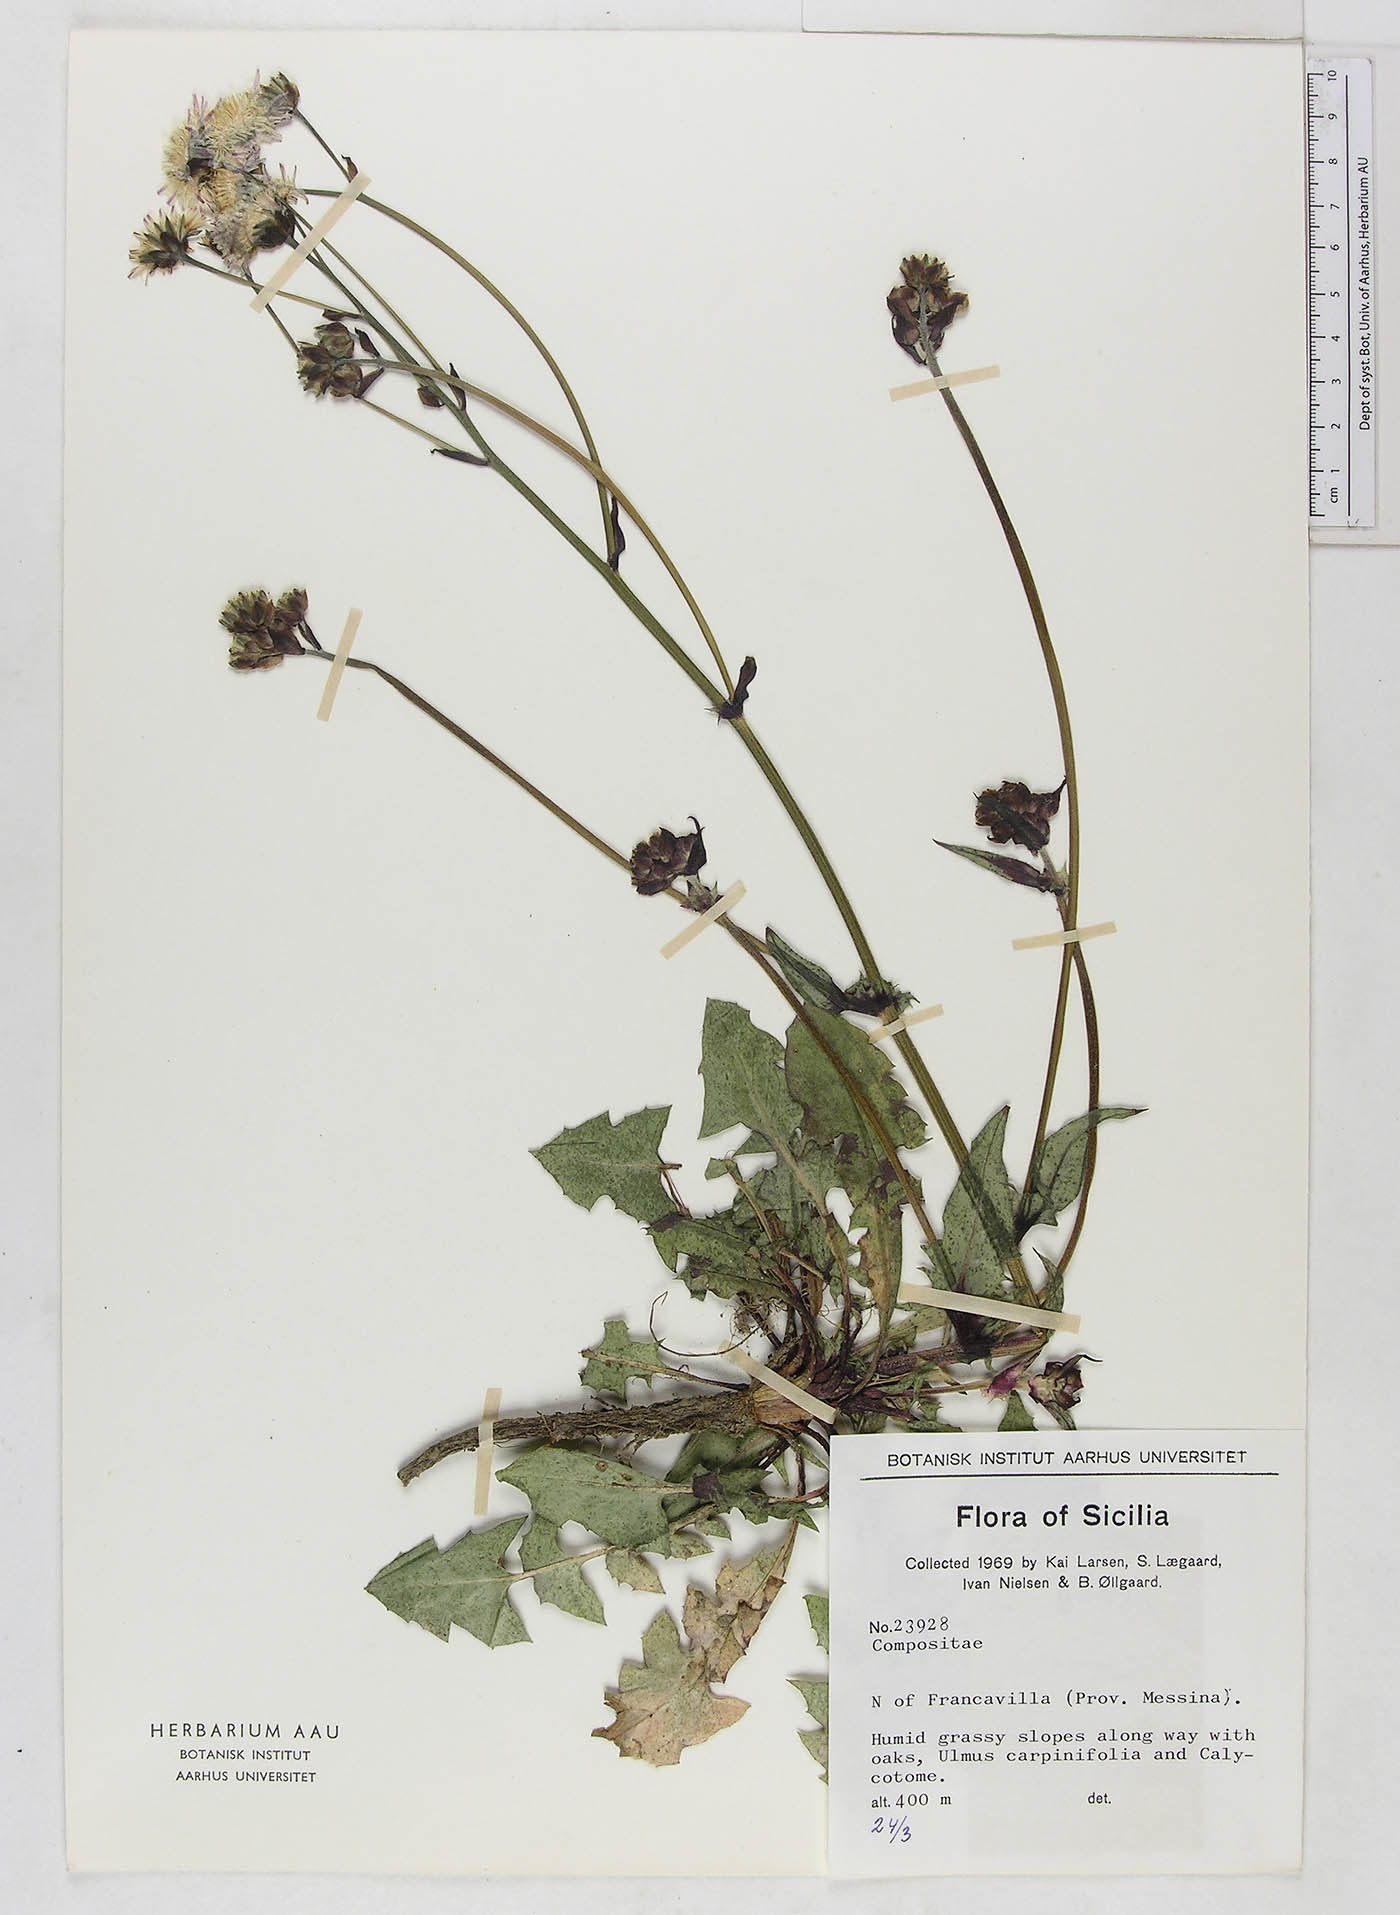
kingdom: Plantae
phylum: Tracheophyta
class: Magnoliopsida
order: Asterales
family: Asteraceae
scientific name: Asteraceae
